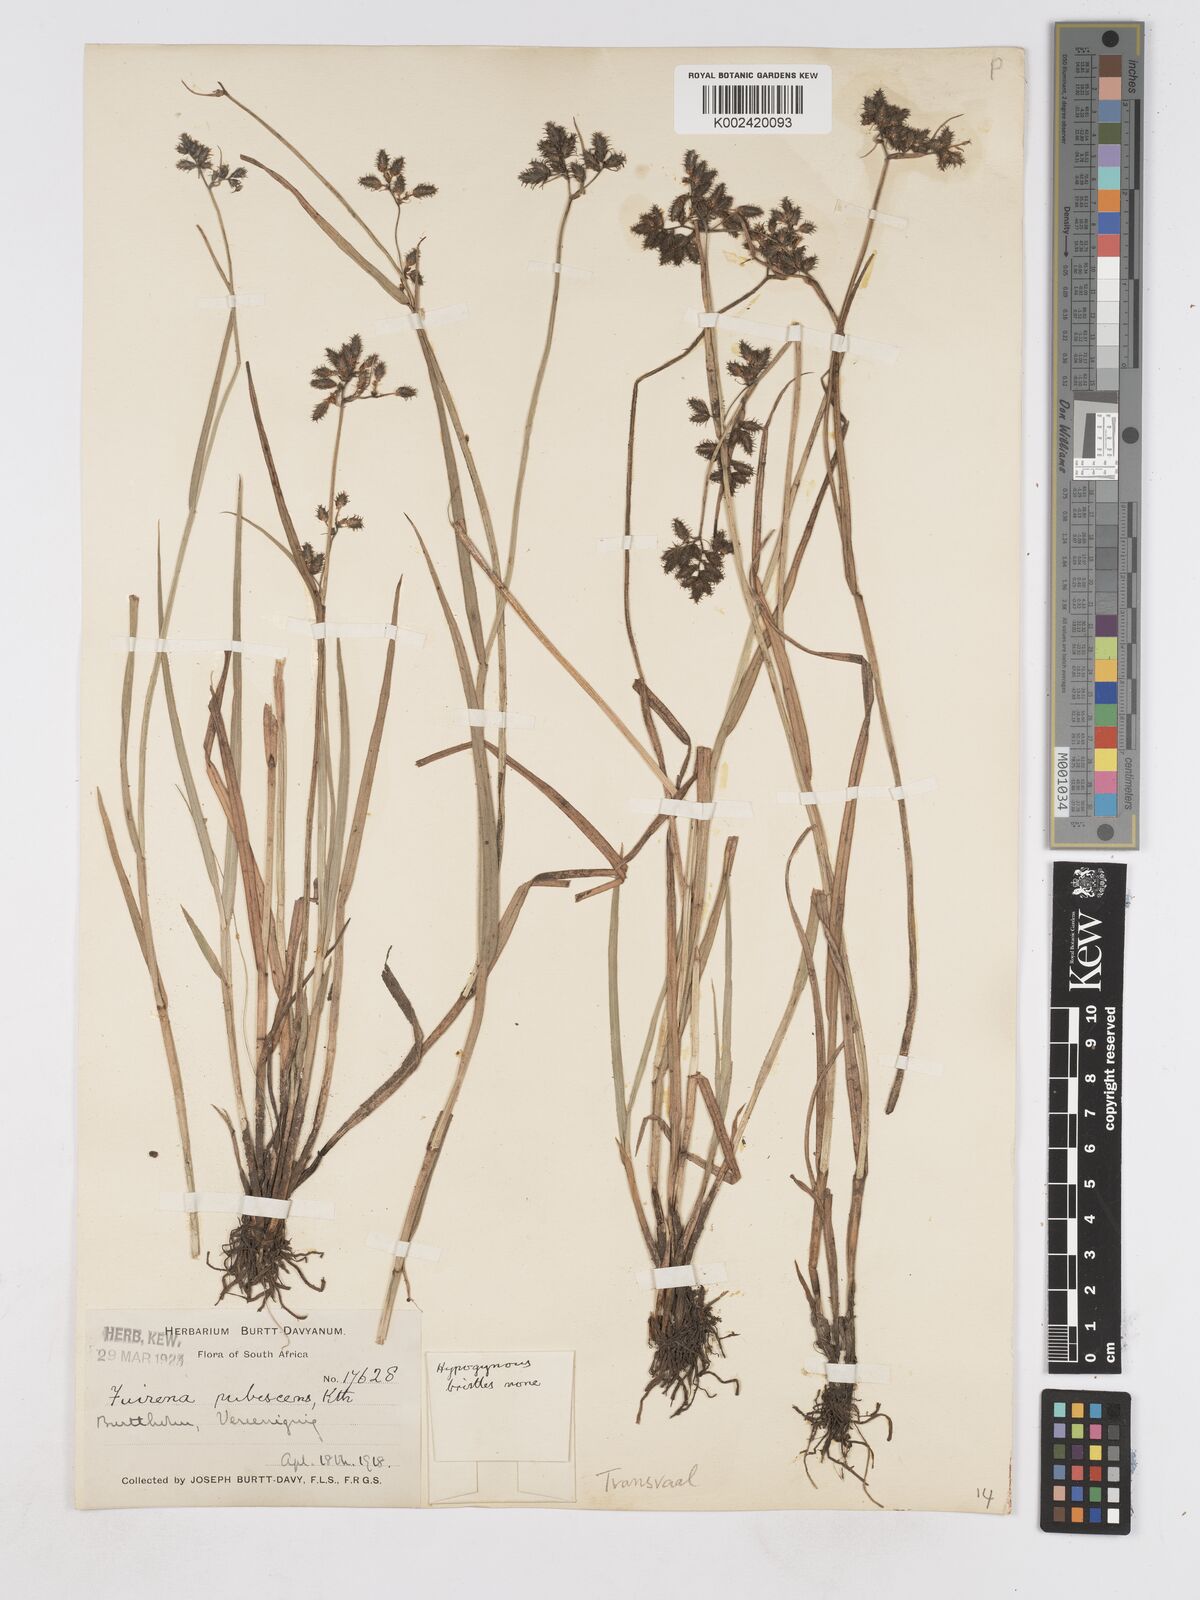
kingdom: Plantae
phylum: Tracheophyta
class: Liliopsida
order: Poales
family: Cyperaceae
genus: Fuirena
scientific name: Fuirena pubescens
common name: Hairy sedge
